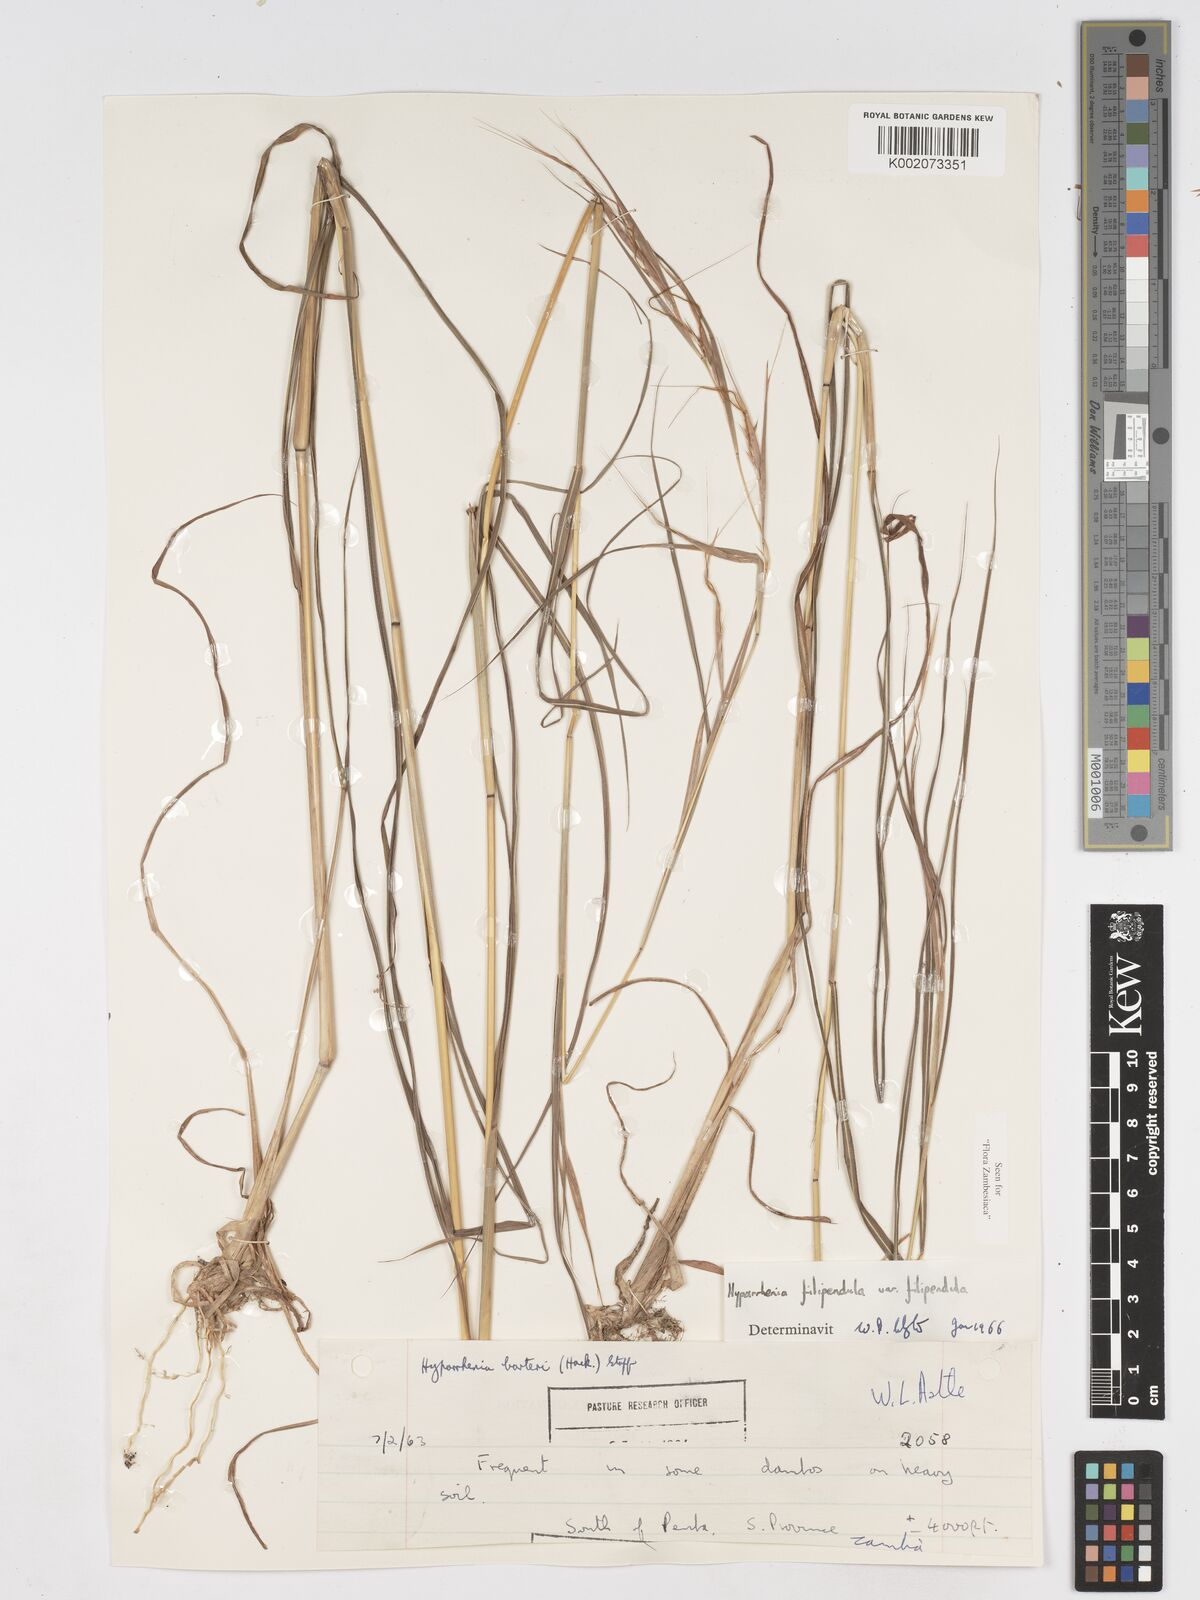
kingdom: Plantae
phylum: Tracheophyta
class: Liliopsida
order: Poales
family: Poaceae
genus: Hyparrhenia
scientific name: Hyparrhenia filipendula
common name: Tambookie grass
